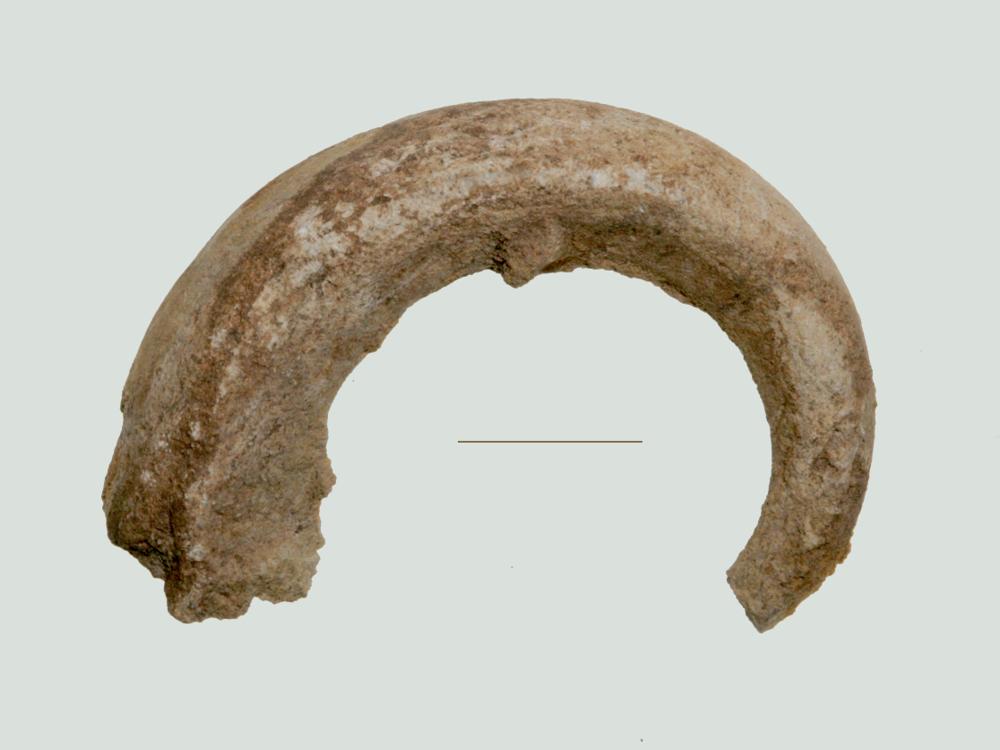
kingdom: Animalia
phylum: Mollusca
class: Gastropoda
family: Euomphalidae
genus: Ecculiomphalus
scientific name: Ecculiomphalus Eccyliopterus centrifugus
